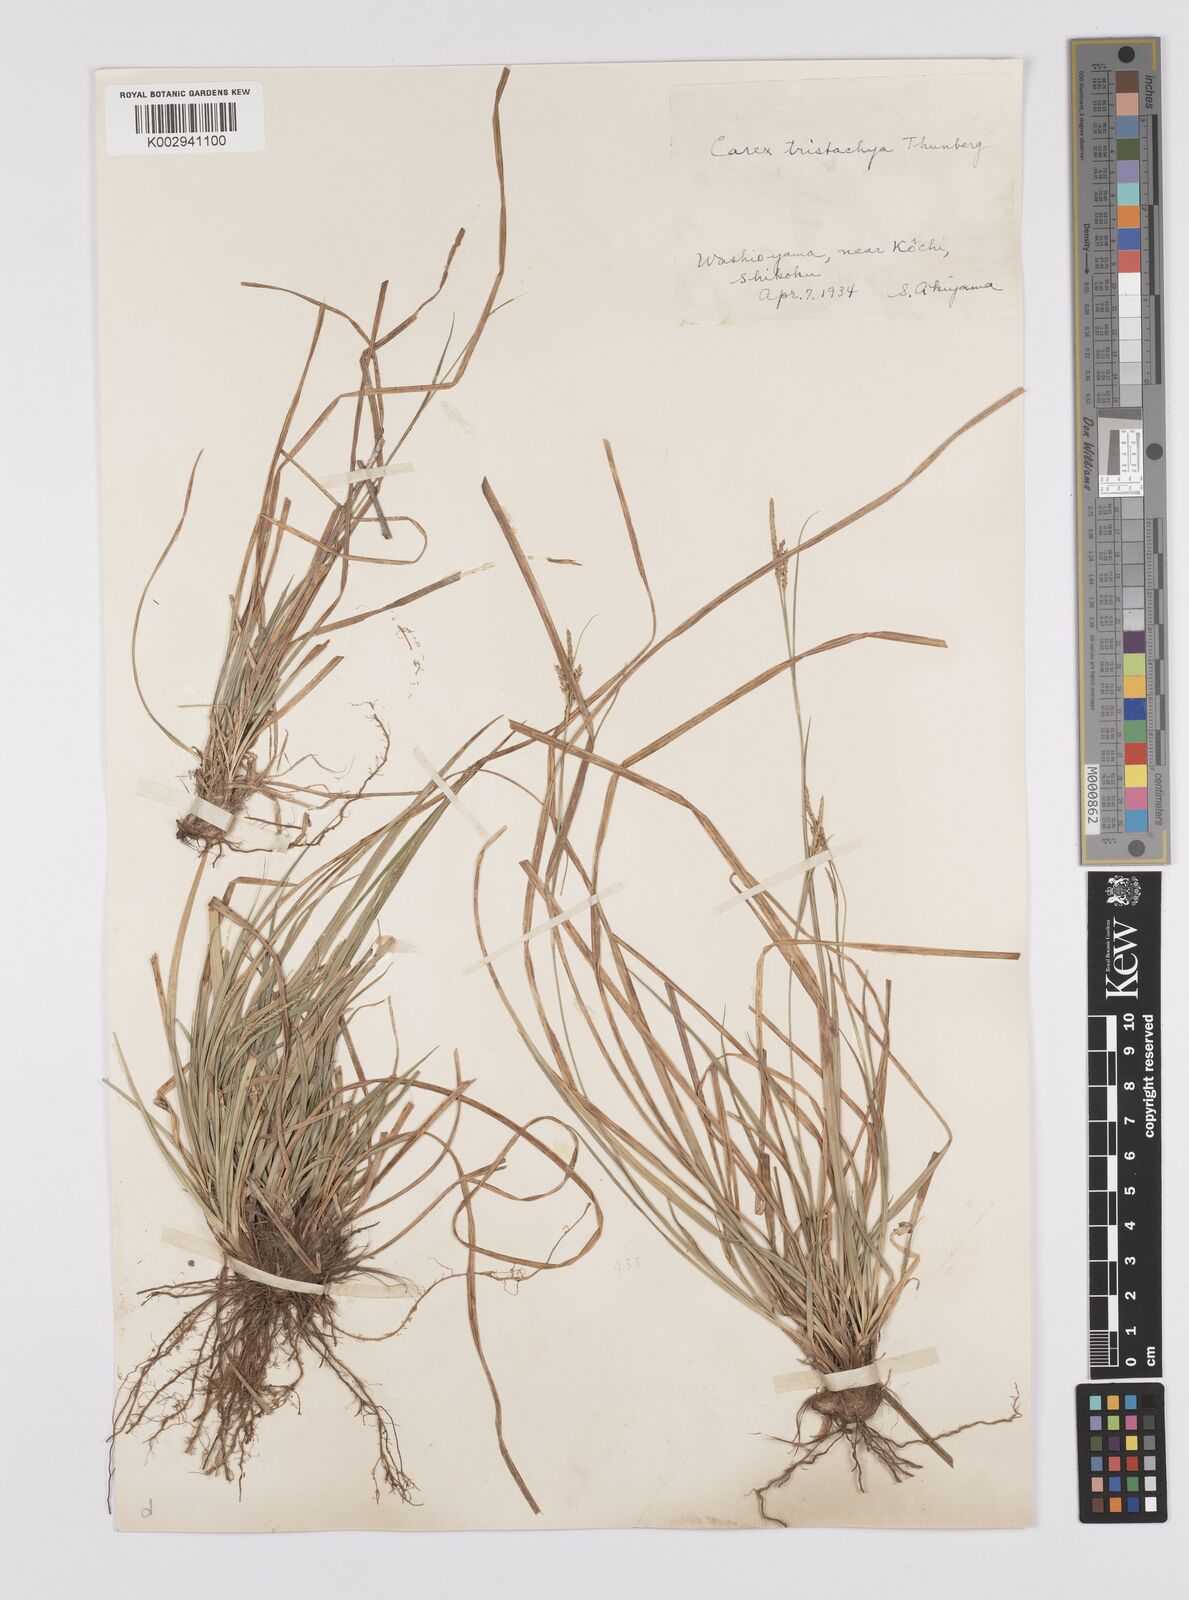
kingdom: Plantae
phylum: Tracheophyta
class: Liliopsida
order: Poales
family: Cyperaceae
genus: Carex
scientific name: Carex tristachya
